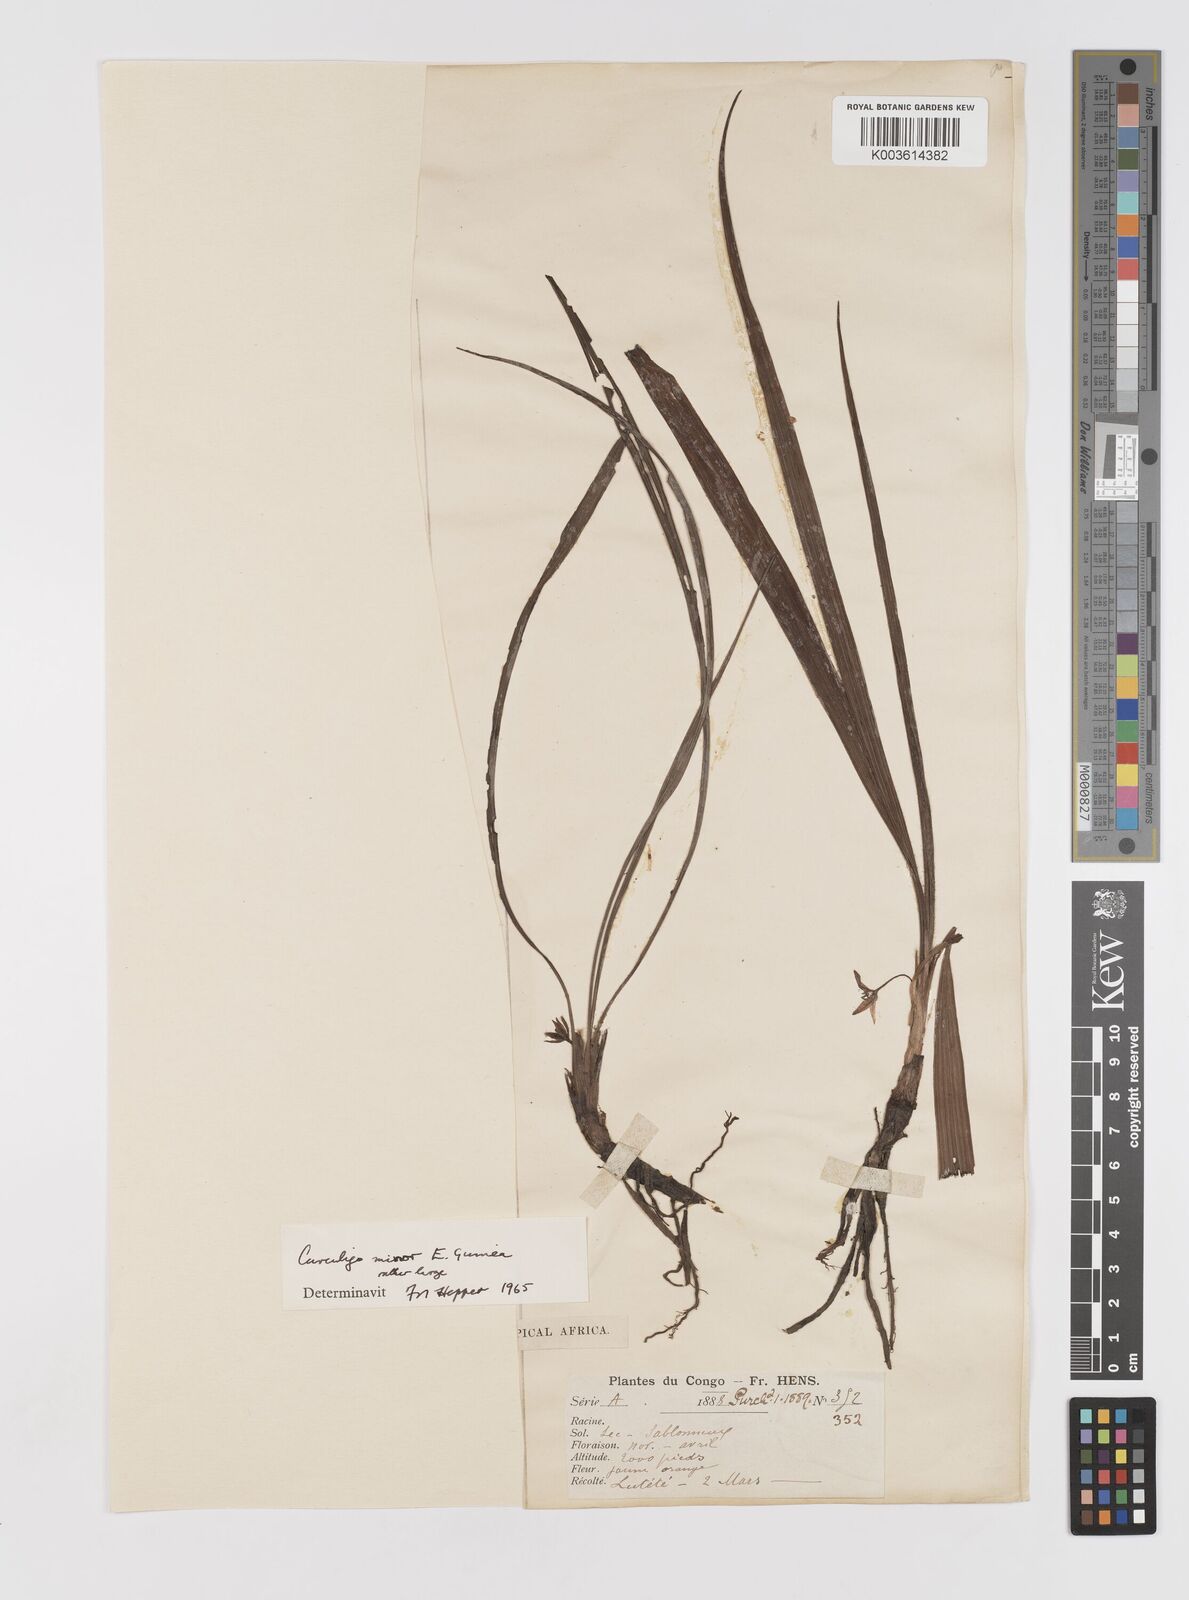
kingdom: Plantae
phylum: Tracheophyta
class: Liliopsida
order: Asparagales
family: Hypoxidaceae
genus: Curculigo
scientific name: Curculigo pilosa
